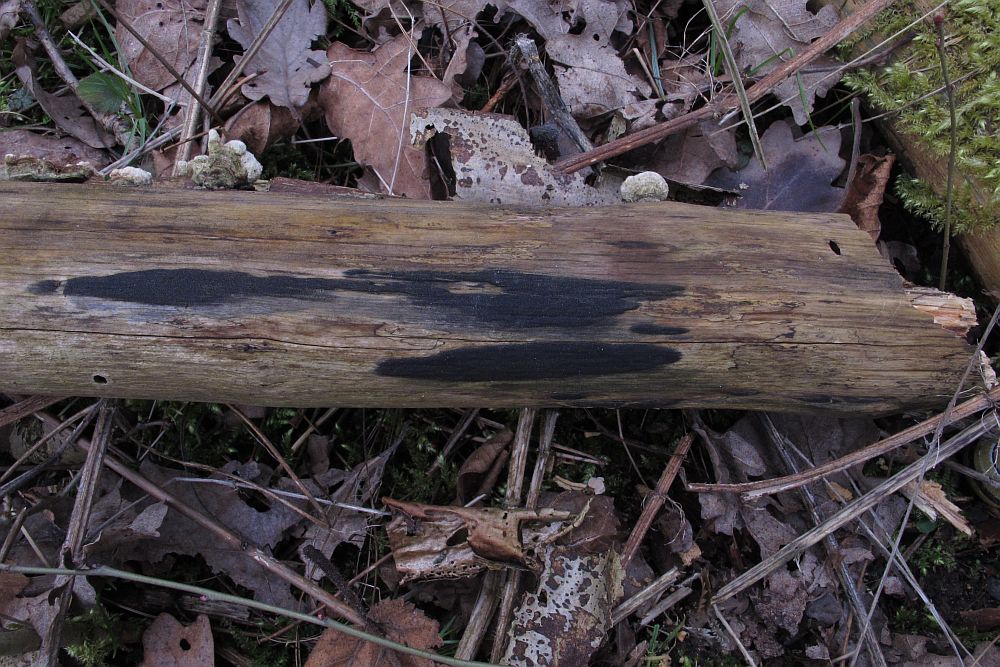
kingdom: Fungi
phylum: Ascomycota
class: Sordariomycetes
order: Xylariales
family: Diatrypaceae
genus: Eutypa
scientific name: Eutypa flavovirens
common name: grønkødet kulskorpe
